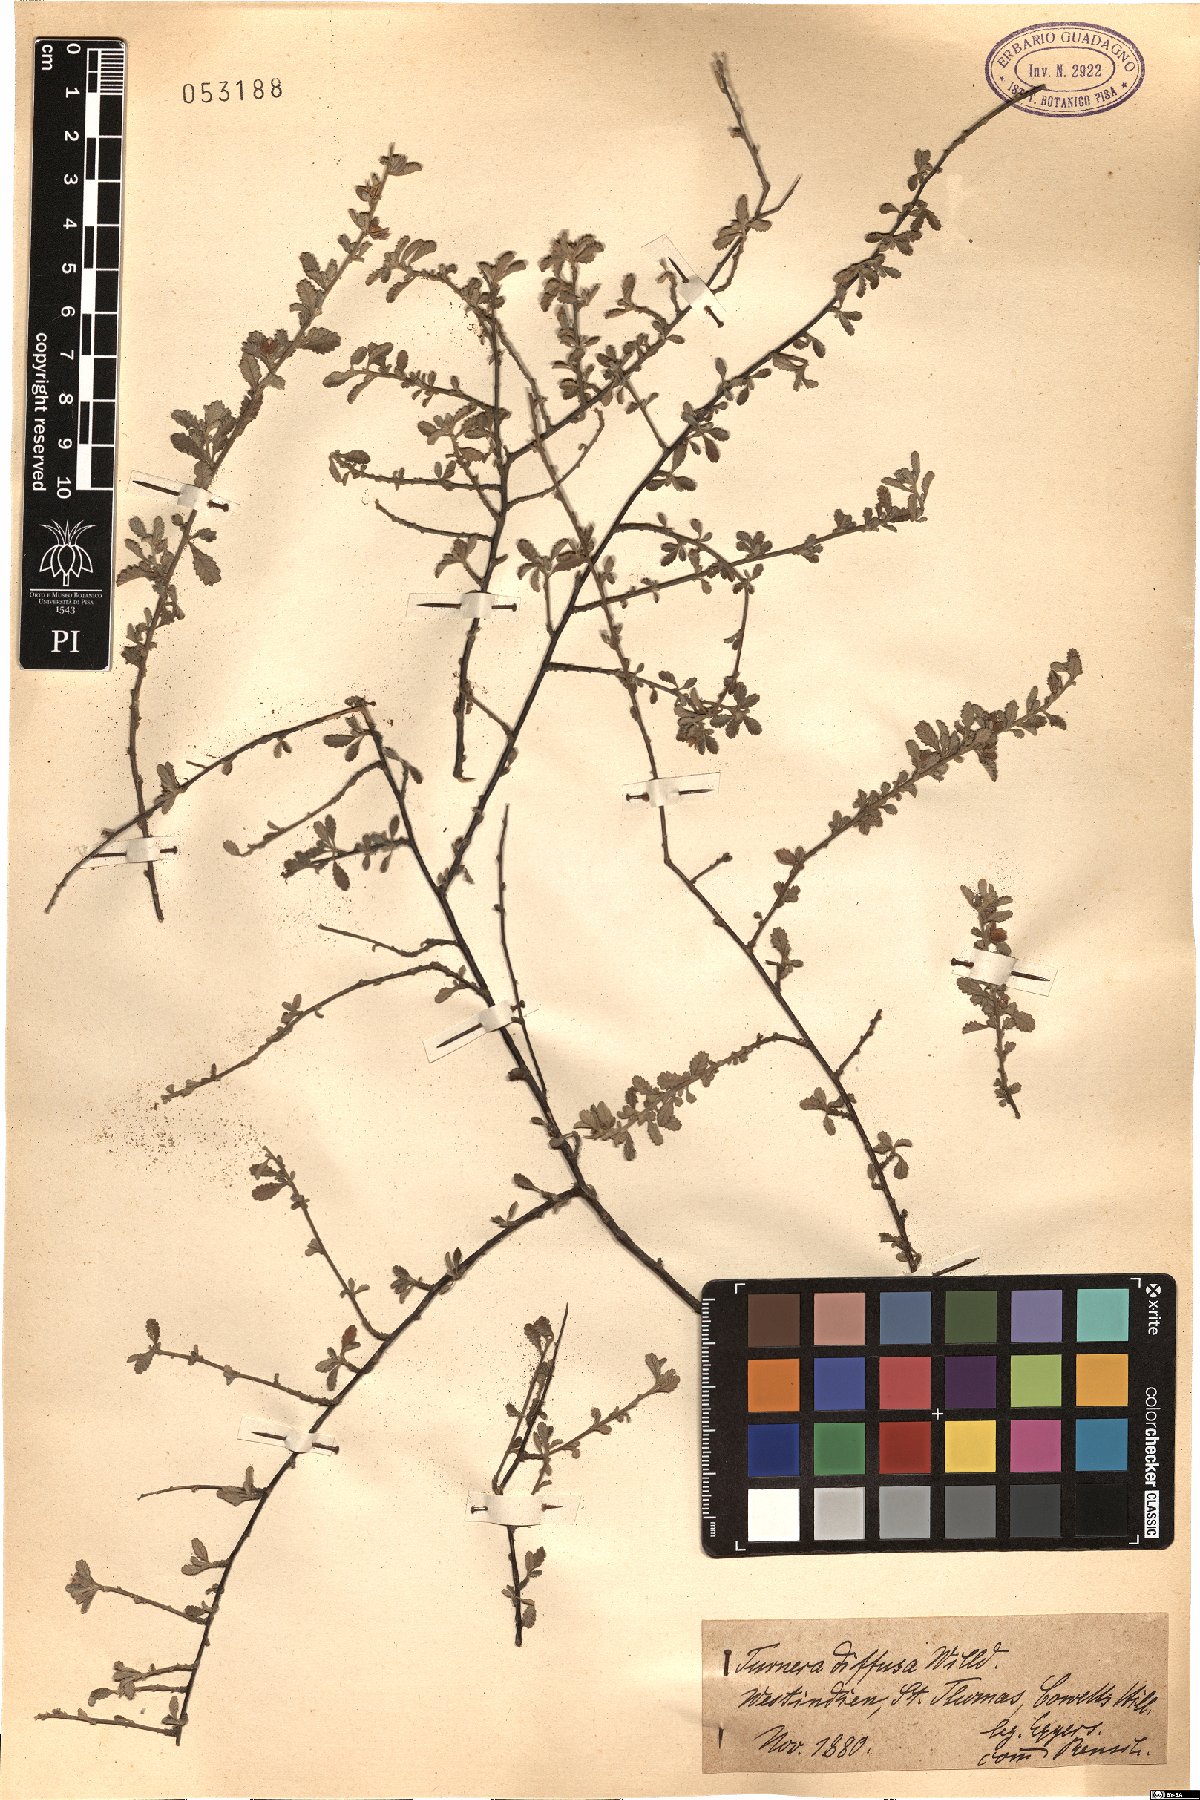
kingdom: Plantae
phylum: Tracheophyta
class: Magnoliopsida
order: Malpighiales
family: Turneraceae
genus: Turnera
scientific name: Turnera diffusa
